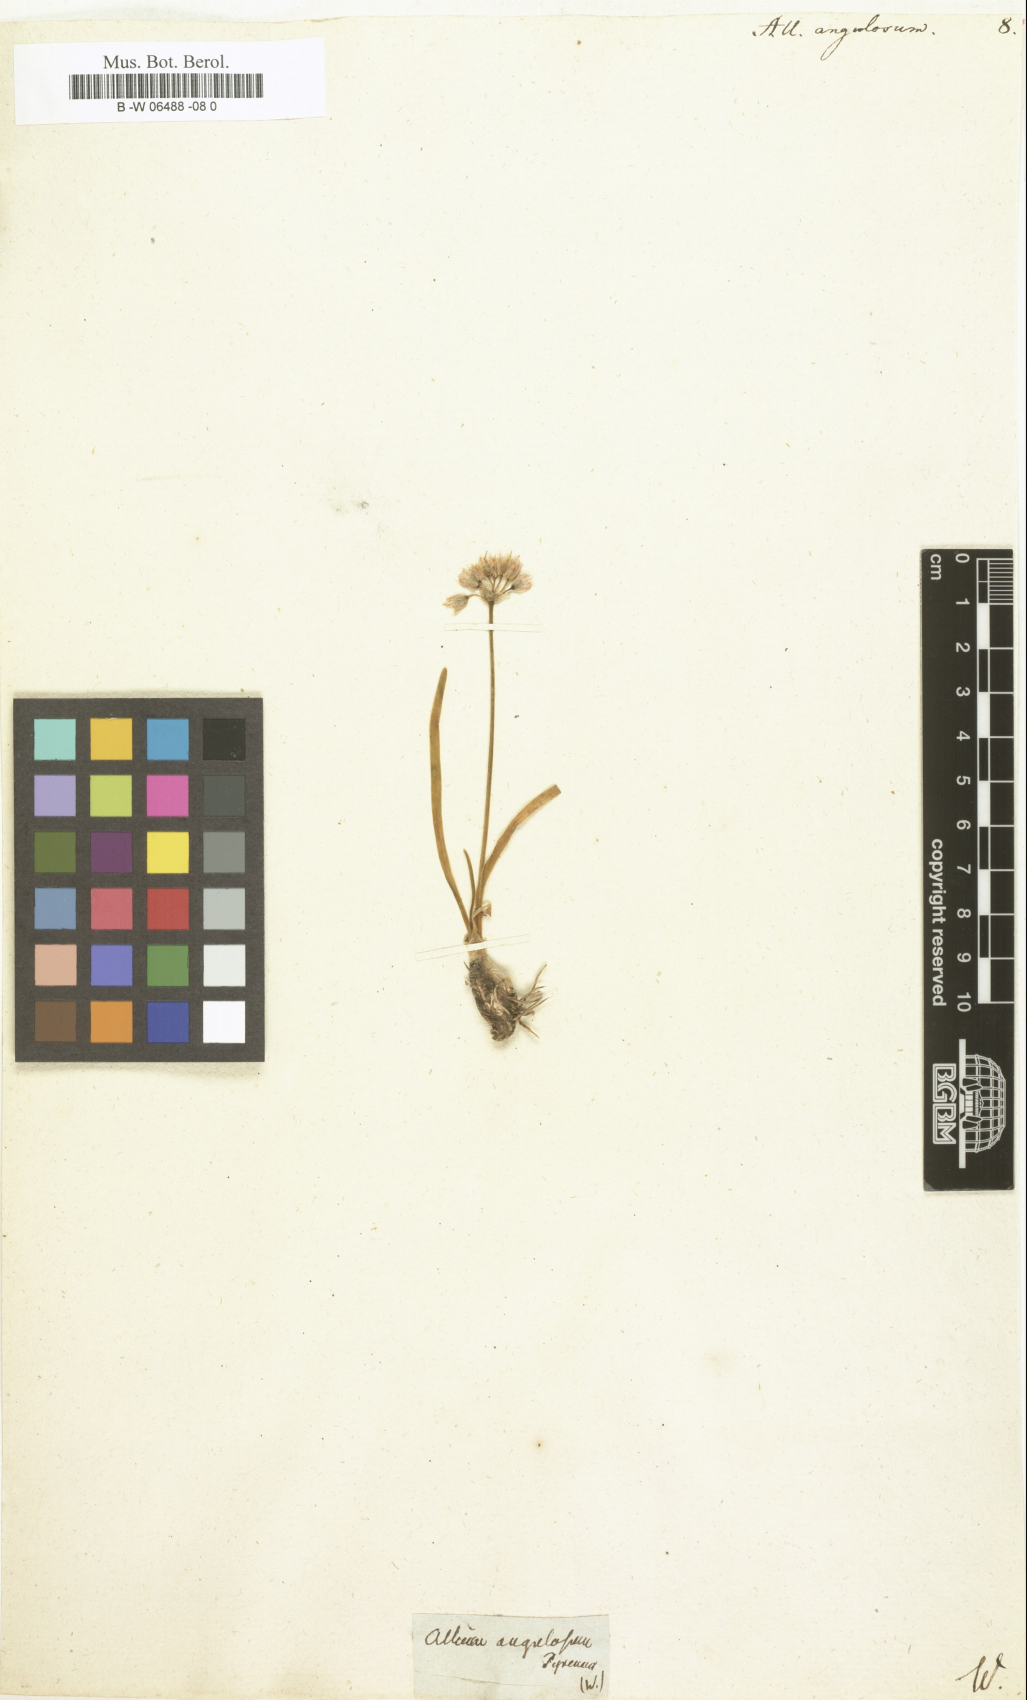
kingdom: Plantae
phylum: Tracheophyta
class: Liliopsida
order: Asparagales
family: Amaryllidaceae
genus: Allium
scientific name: Allium angulosum
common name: Mouse garlic
